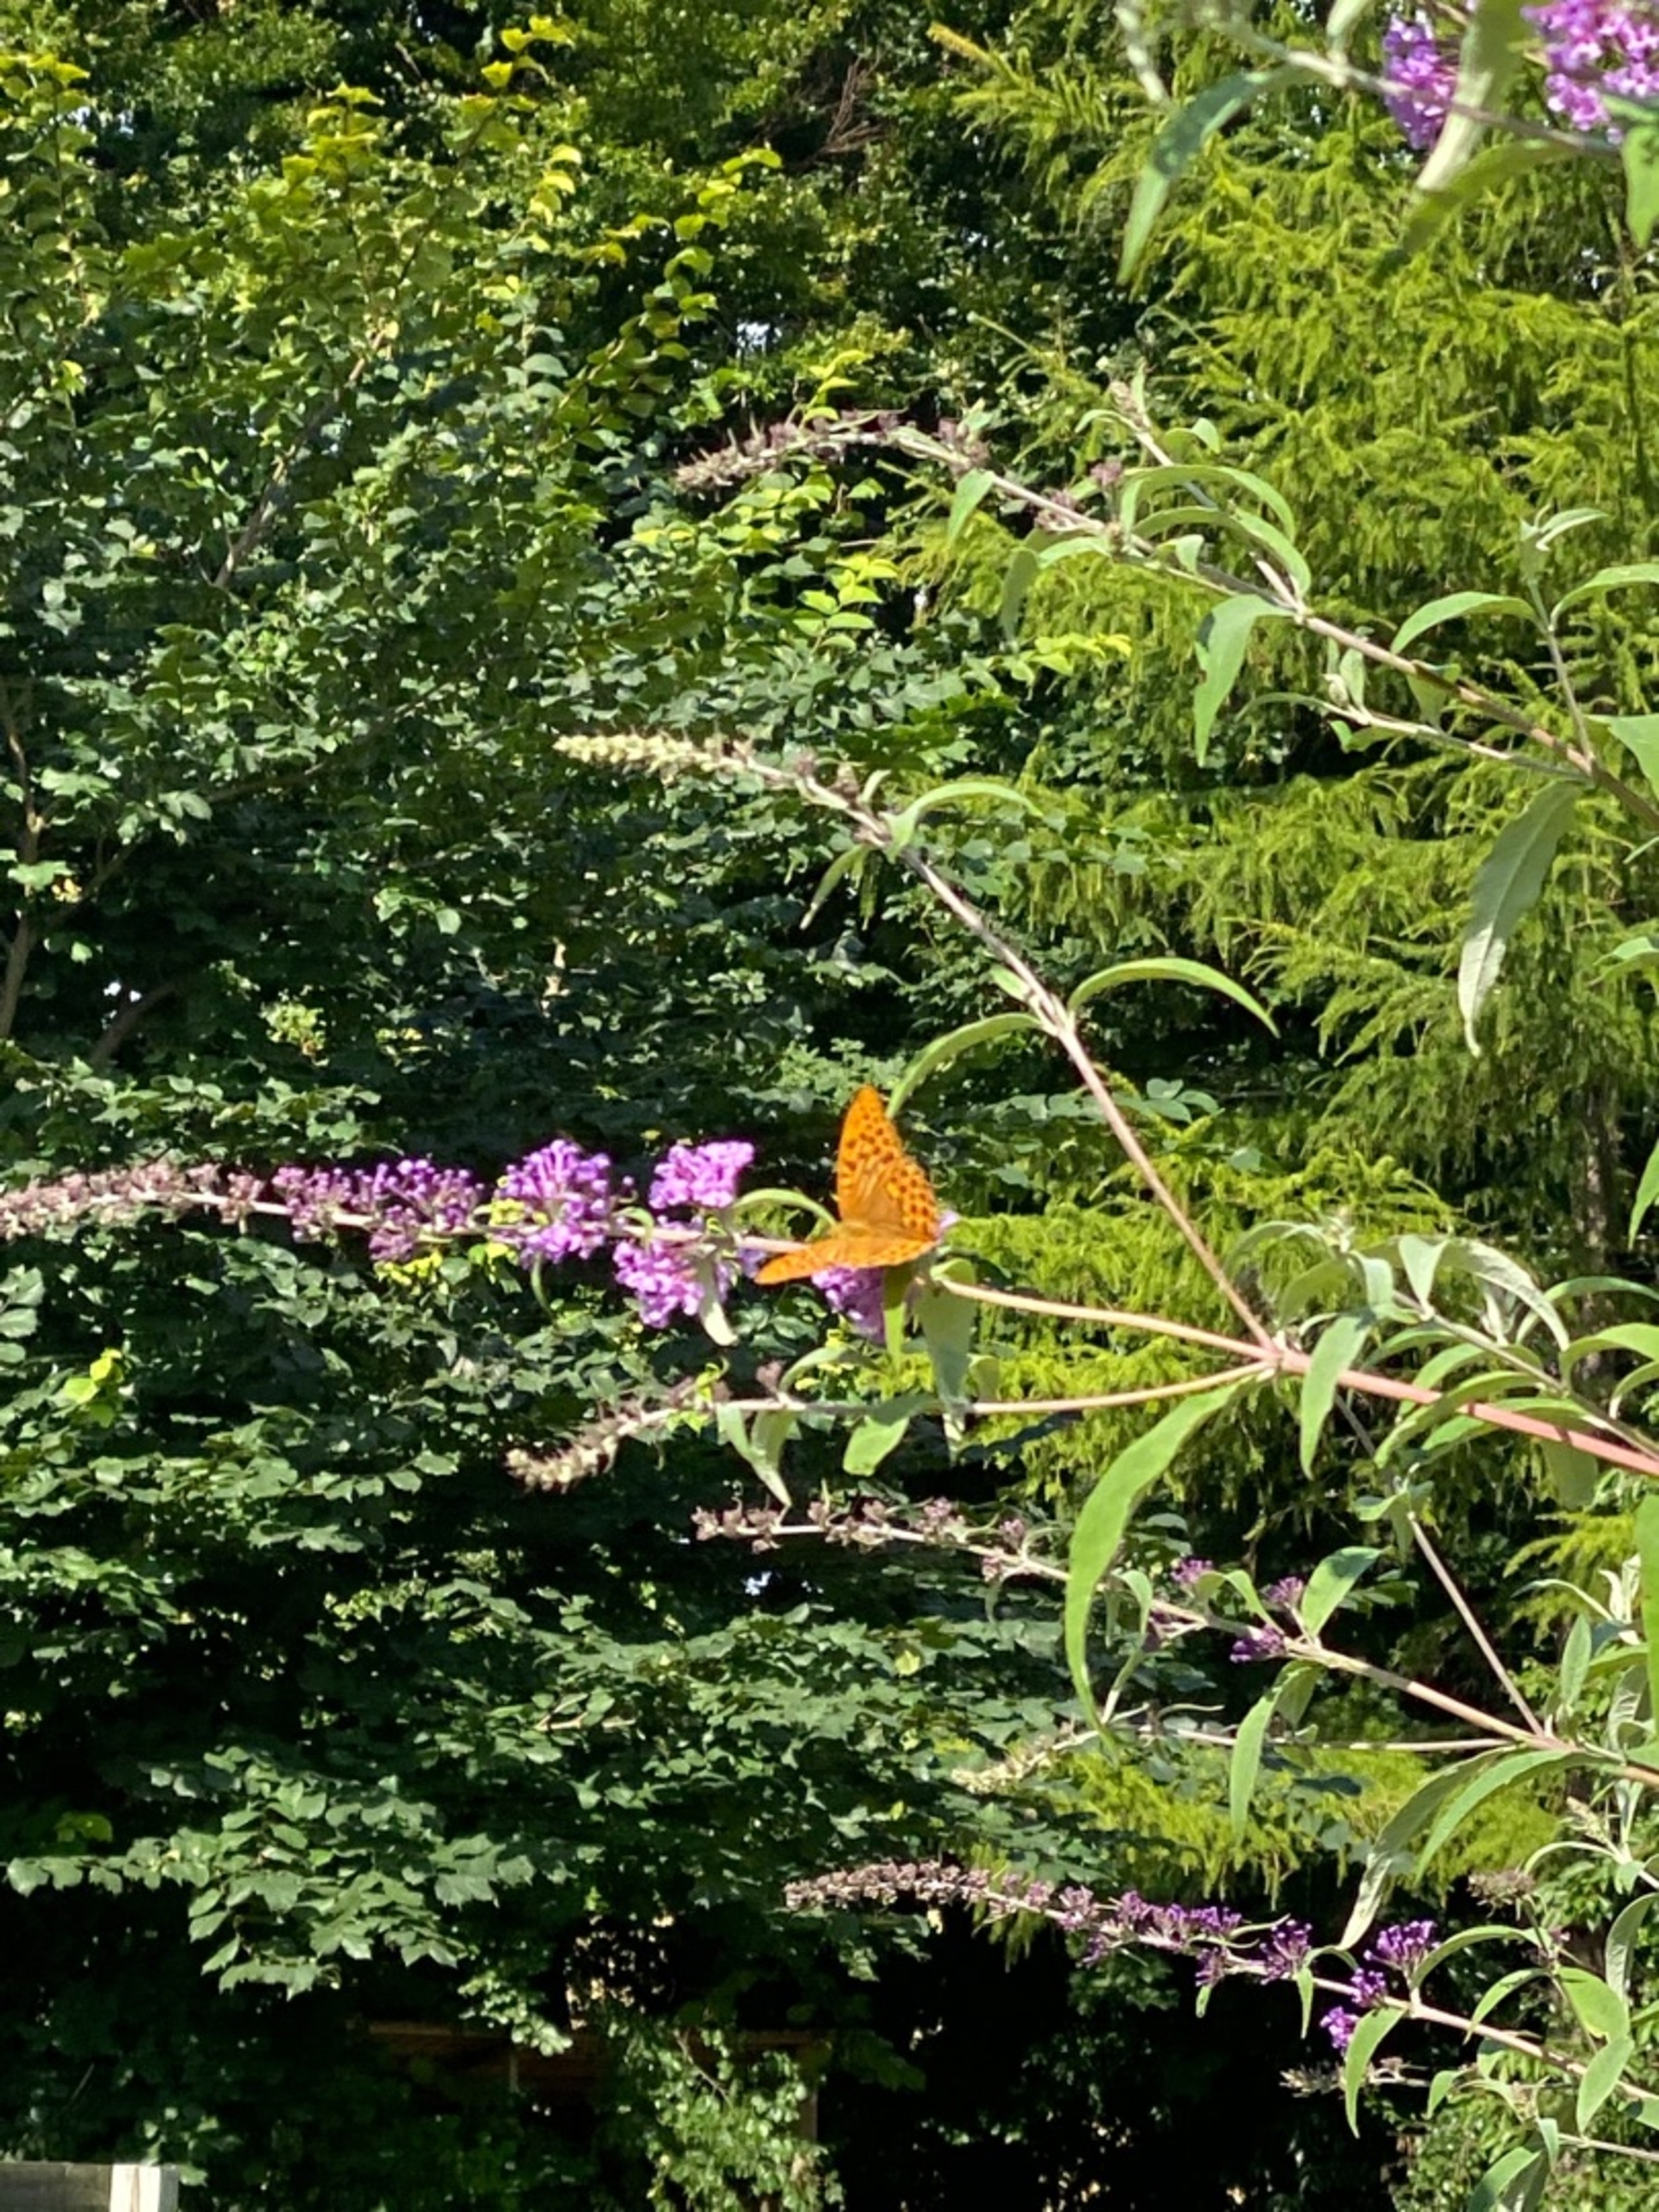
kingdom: Animalia
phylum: Arthropoda
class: Insecta
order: Lepidoptera
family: Nymphalidae
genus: Argynnis
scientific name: Argynnis paphia
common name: Kejserkåbe
